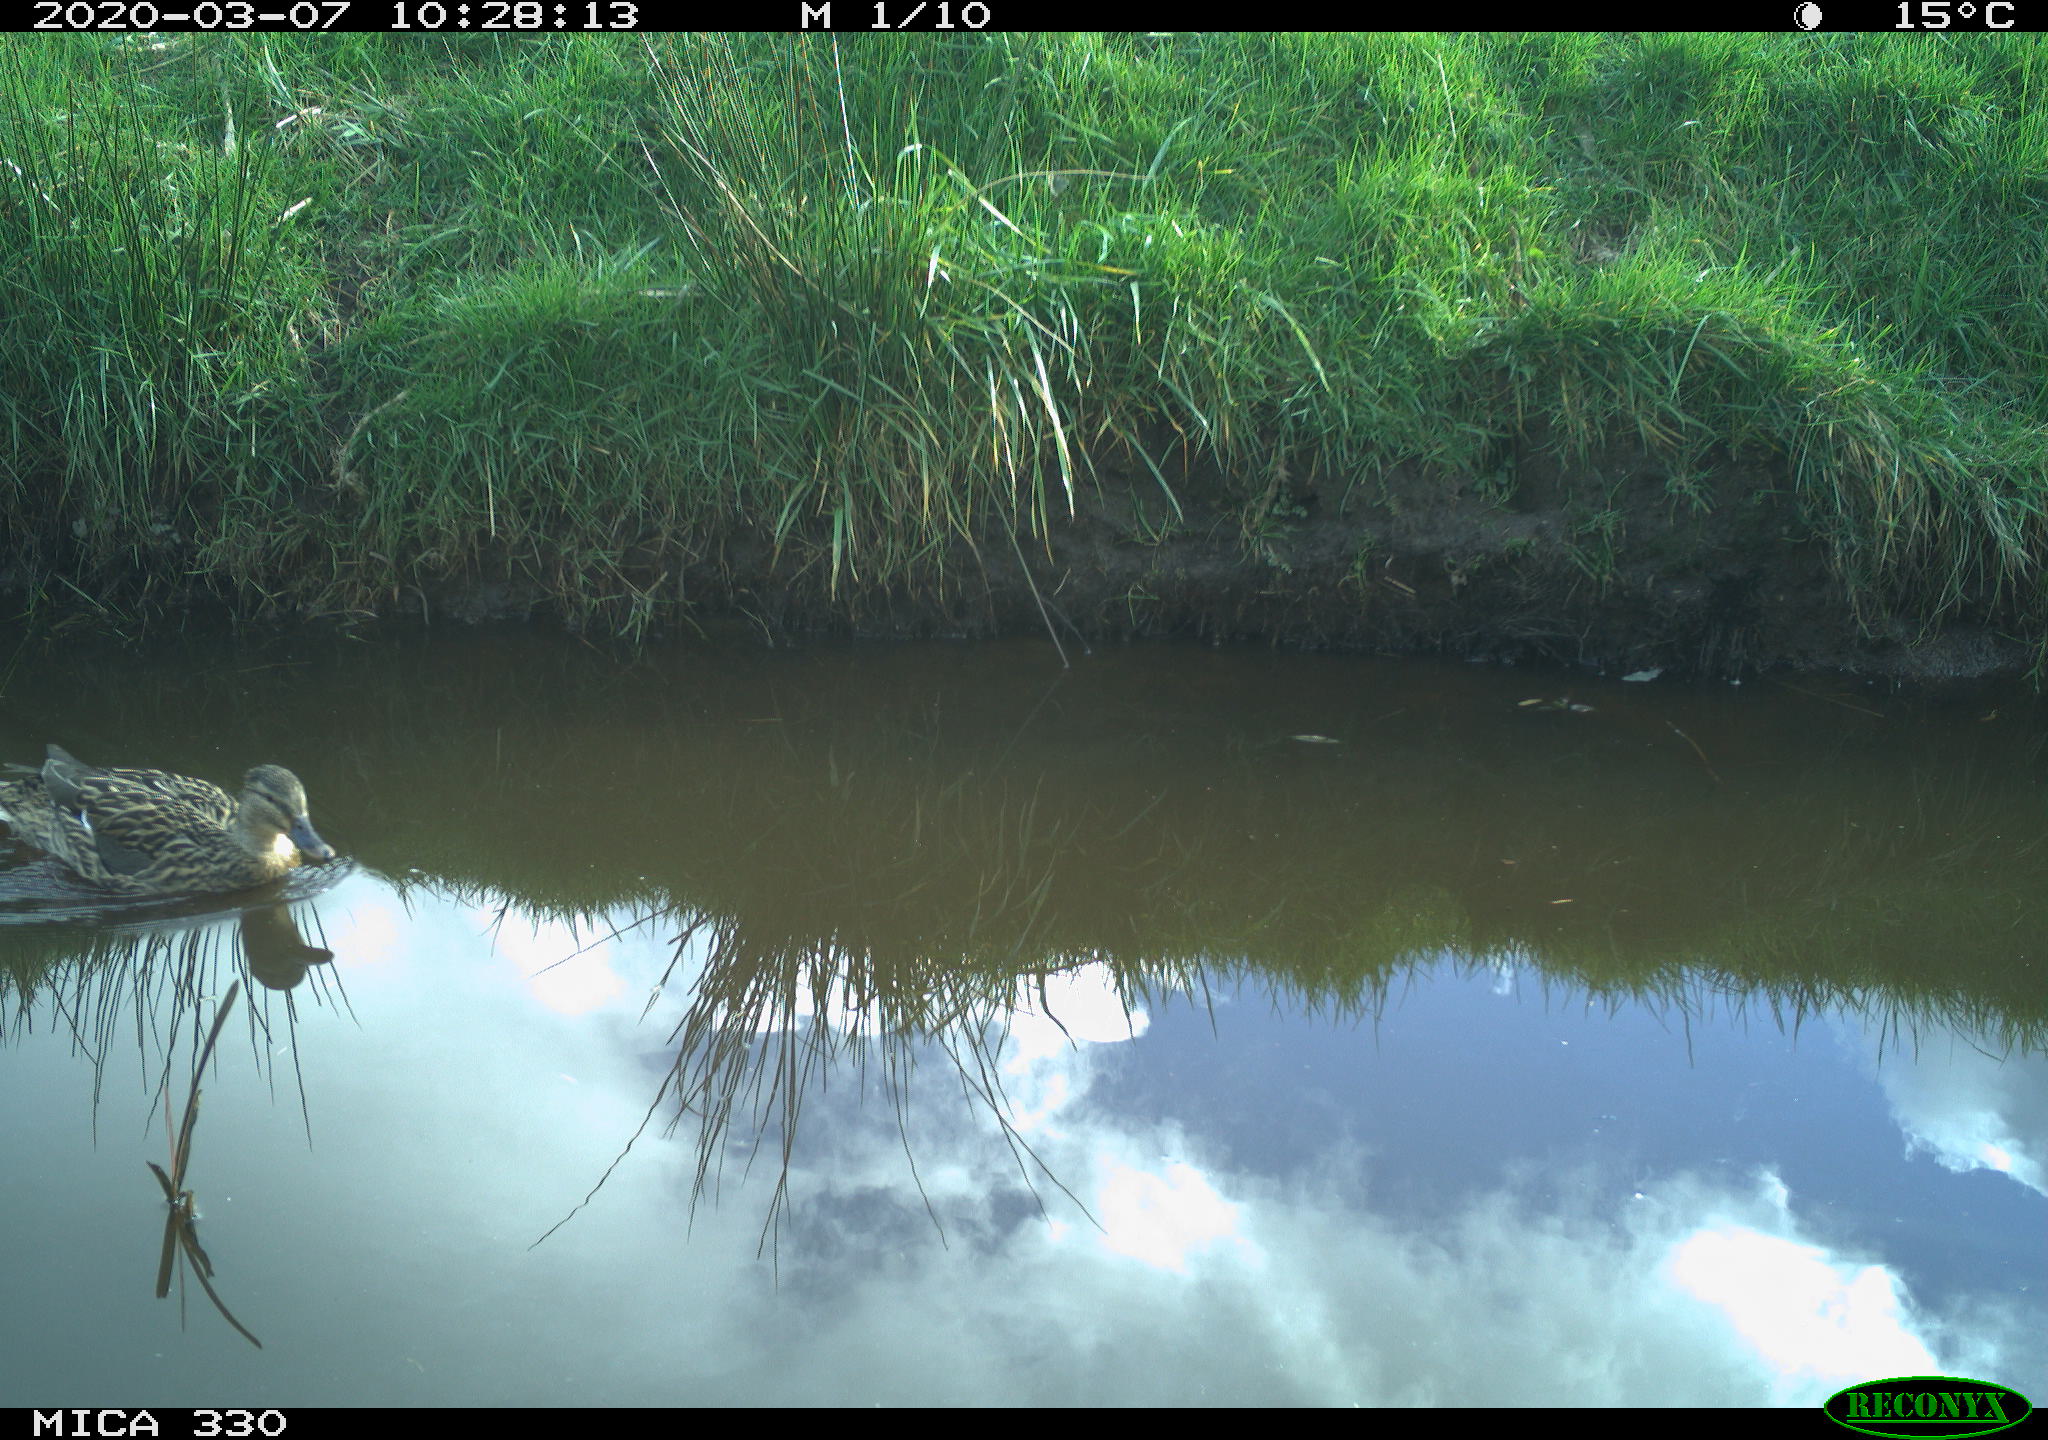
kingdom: Animalia
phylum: Chordata
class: Aves
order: Anseriformes
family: Anatidae
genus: Anas
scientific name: Anas platyrhynchos
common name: Mallard
